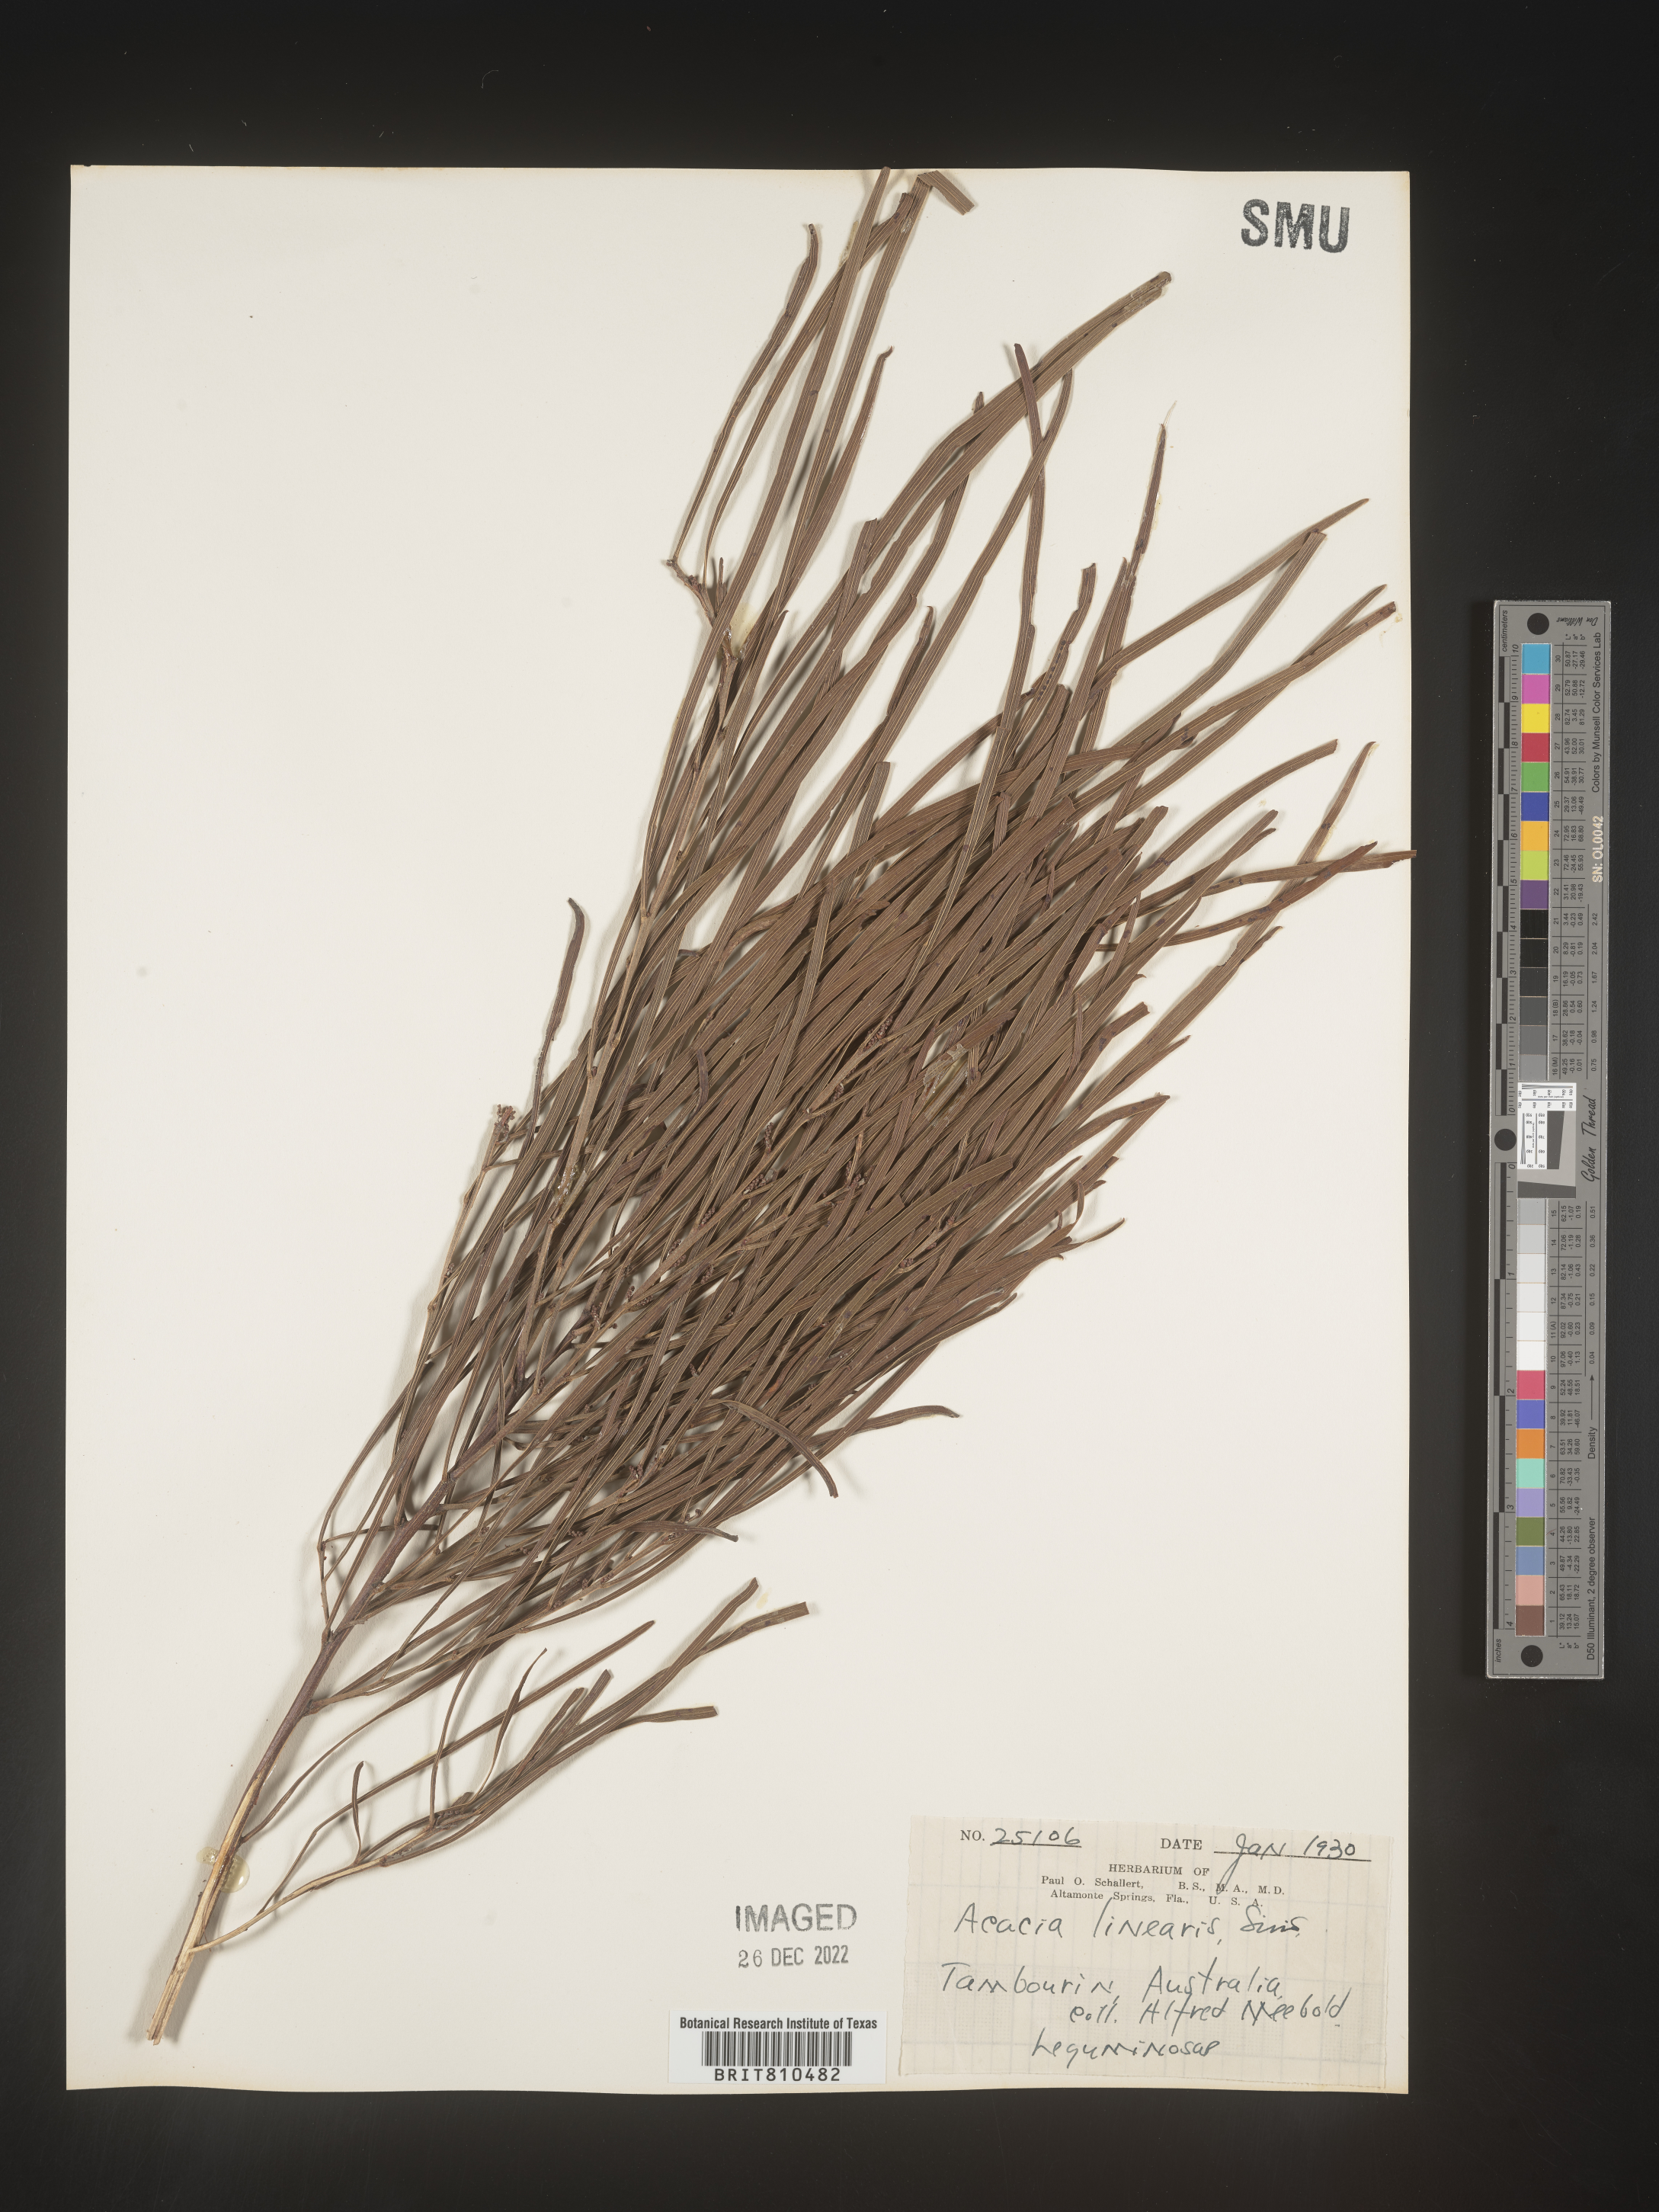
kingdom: Plantae
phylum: Tracheophyta
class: Magnoliopsida
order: Fabales
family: Fabaceae
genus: Acacia
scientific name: Acacia
